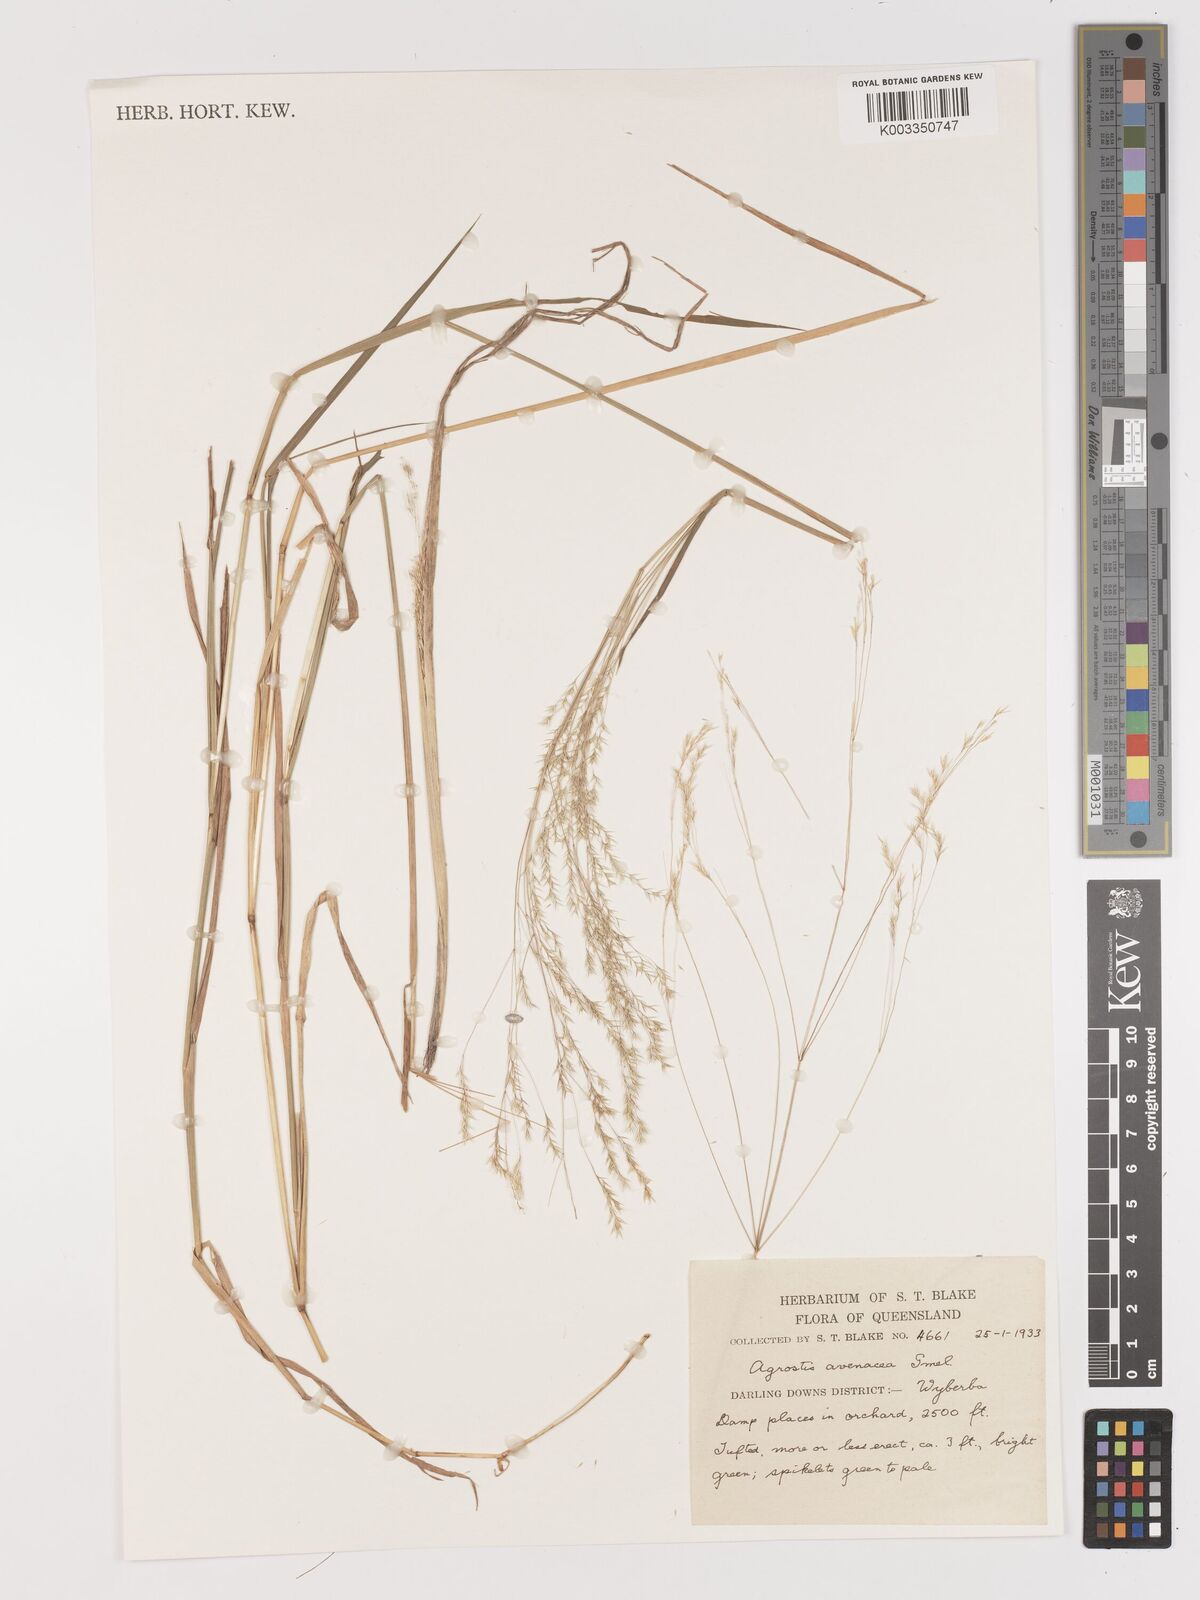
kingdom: Plantae
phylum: Tracheophyta
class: Liliopsida
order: Poales
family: Poaceae
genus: Lachnagrostis
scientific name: Lachnagrostis filiformis
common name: Bentgrass
